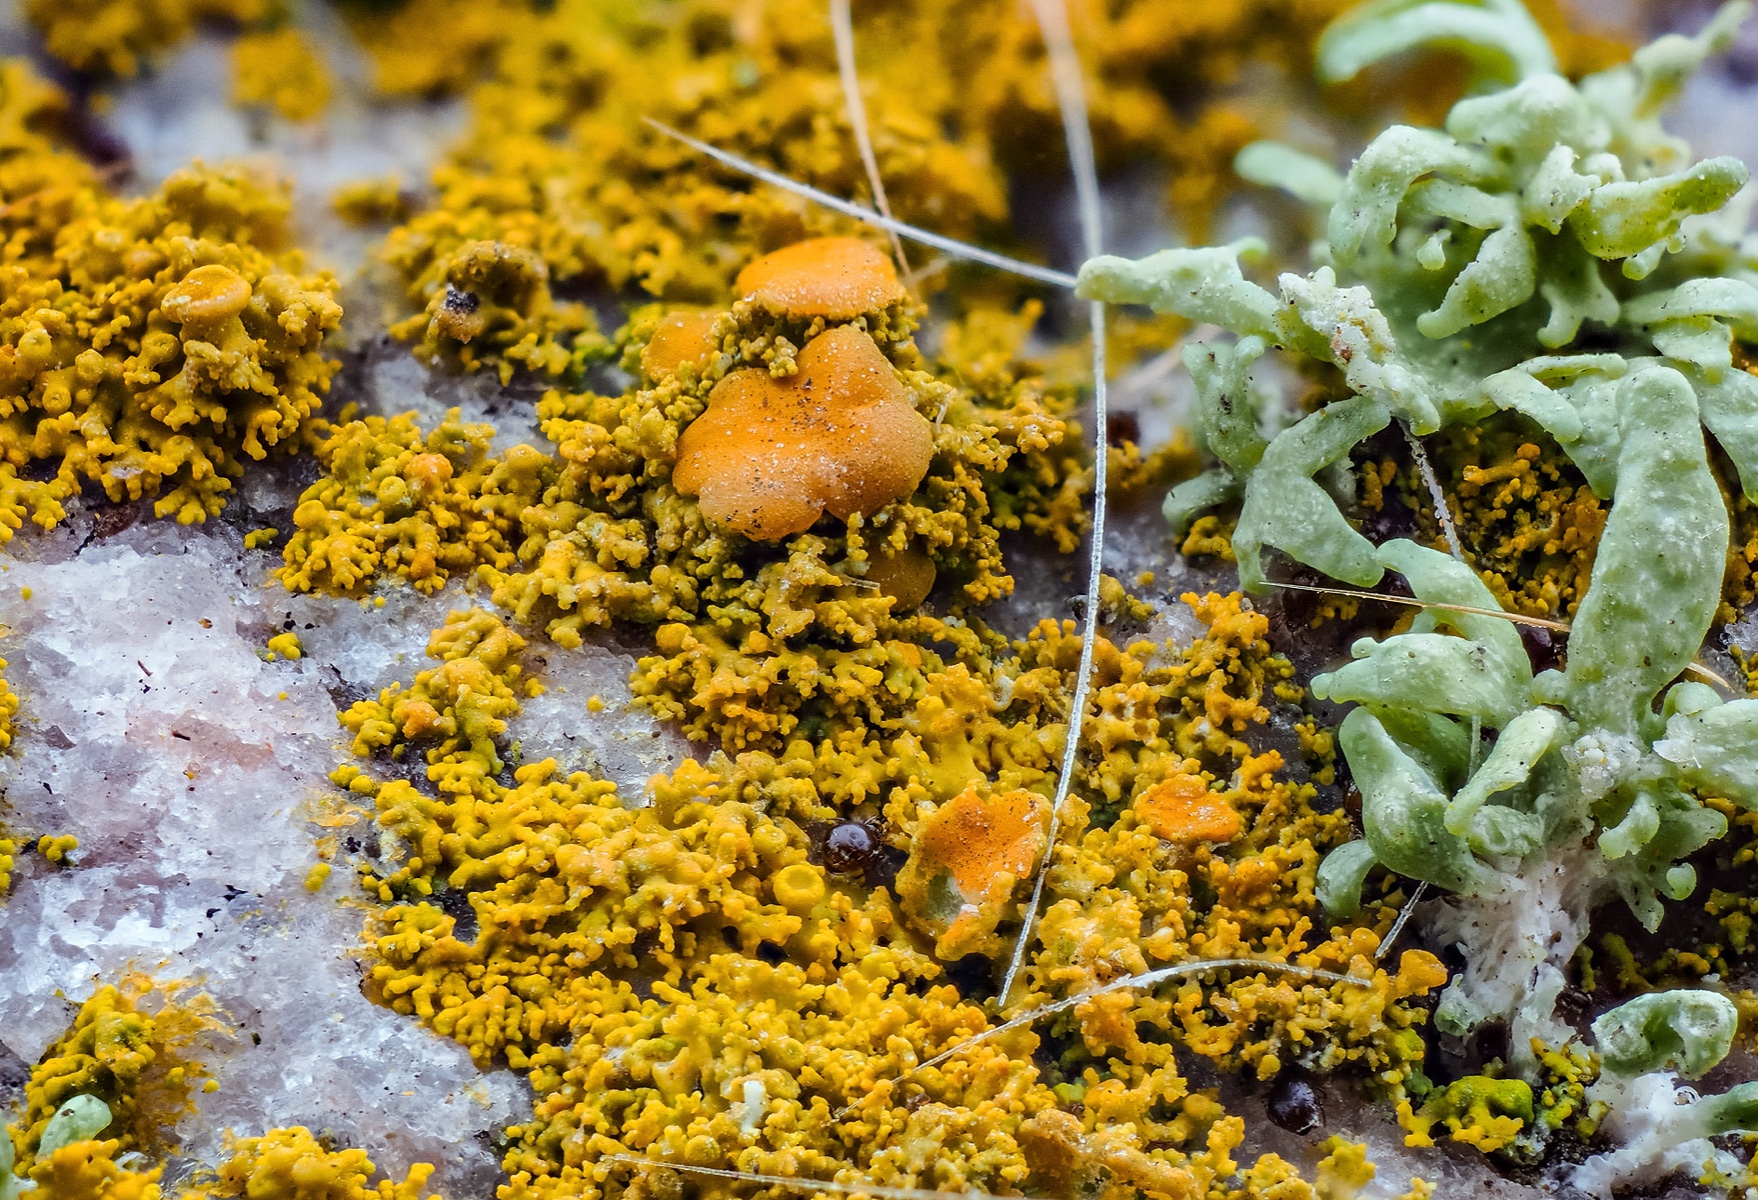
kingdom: Fungi
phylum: Ascomycota
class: Lecanoromycetes
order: Teloschistales
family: Teloschistaceae
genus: Polycauliona
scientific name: Polycauliona candelaria
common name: tue-orangelav
